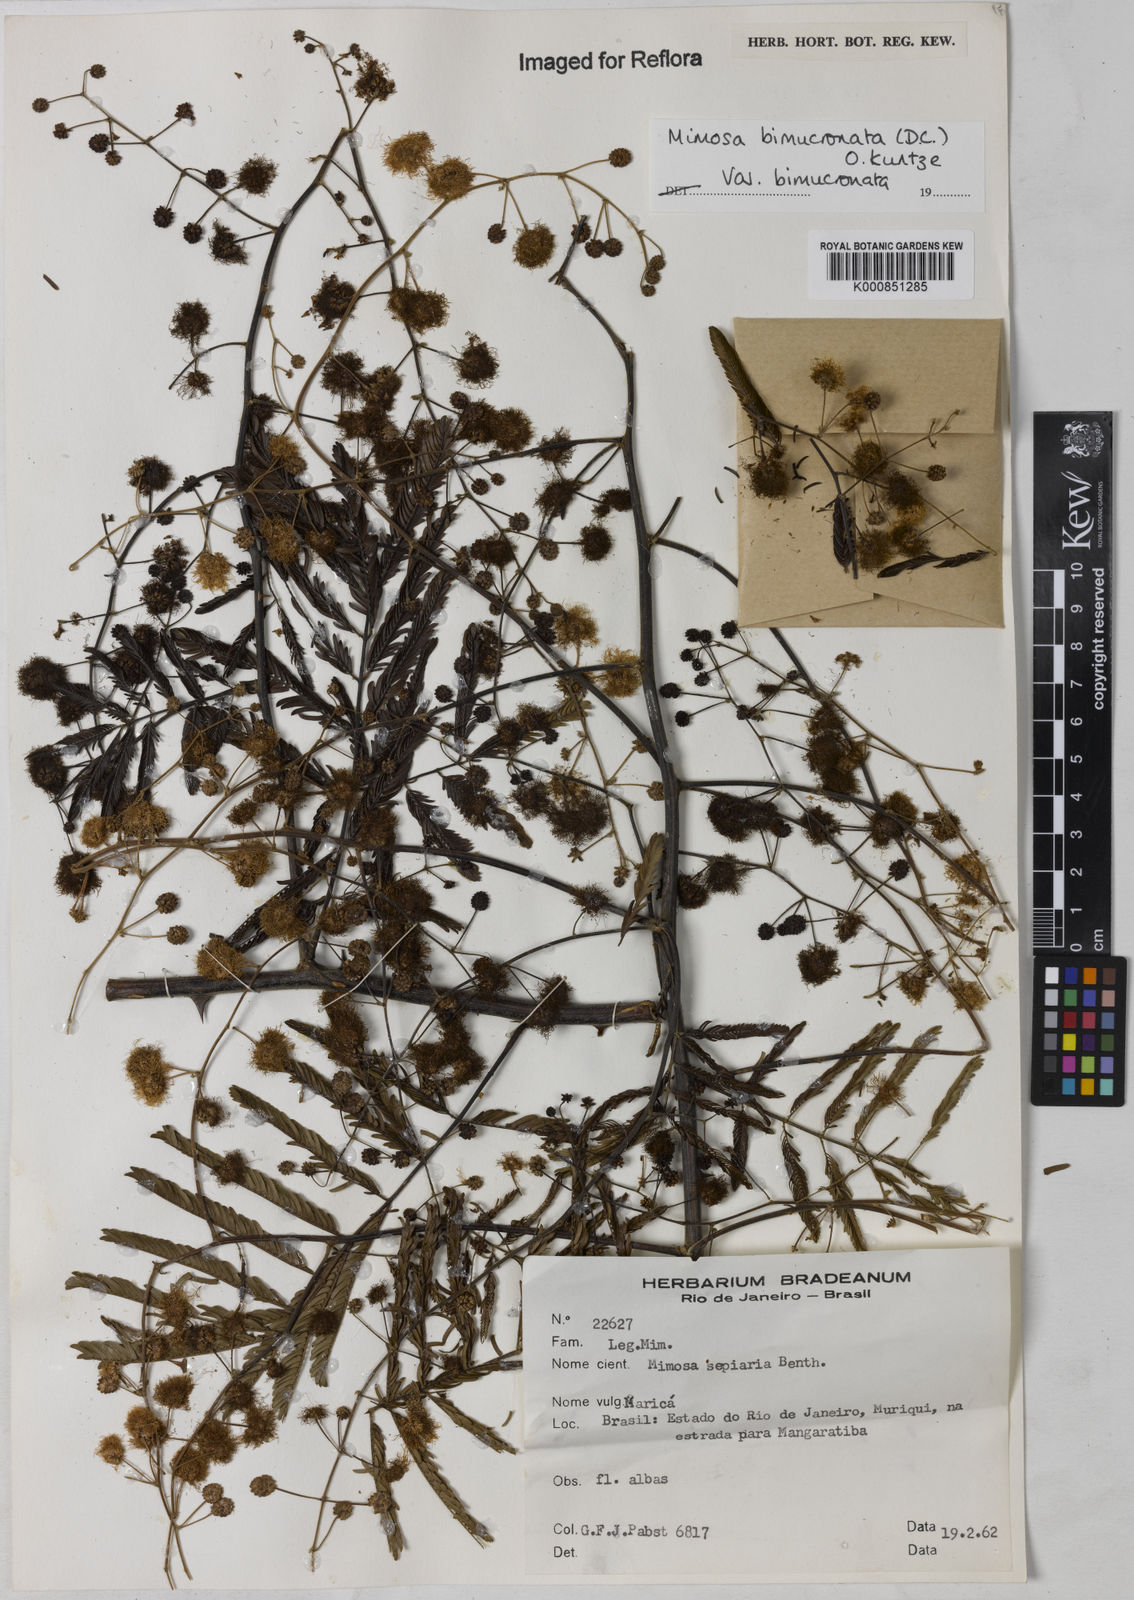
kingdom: Plantae
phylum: Tracheophyta
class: Magnoliopsida
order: Fabales
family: Fabaceae
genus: Mimosa
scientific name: Mimosa bimucronata
